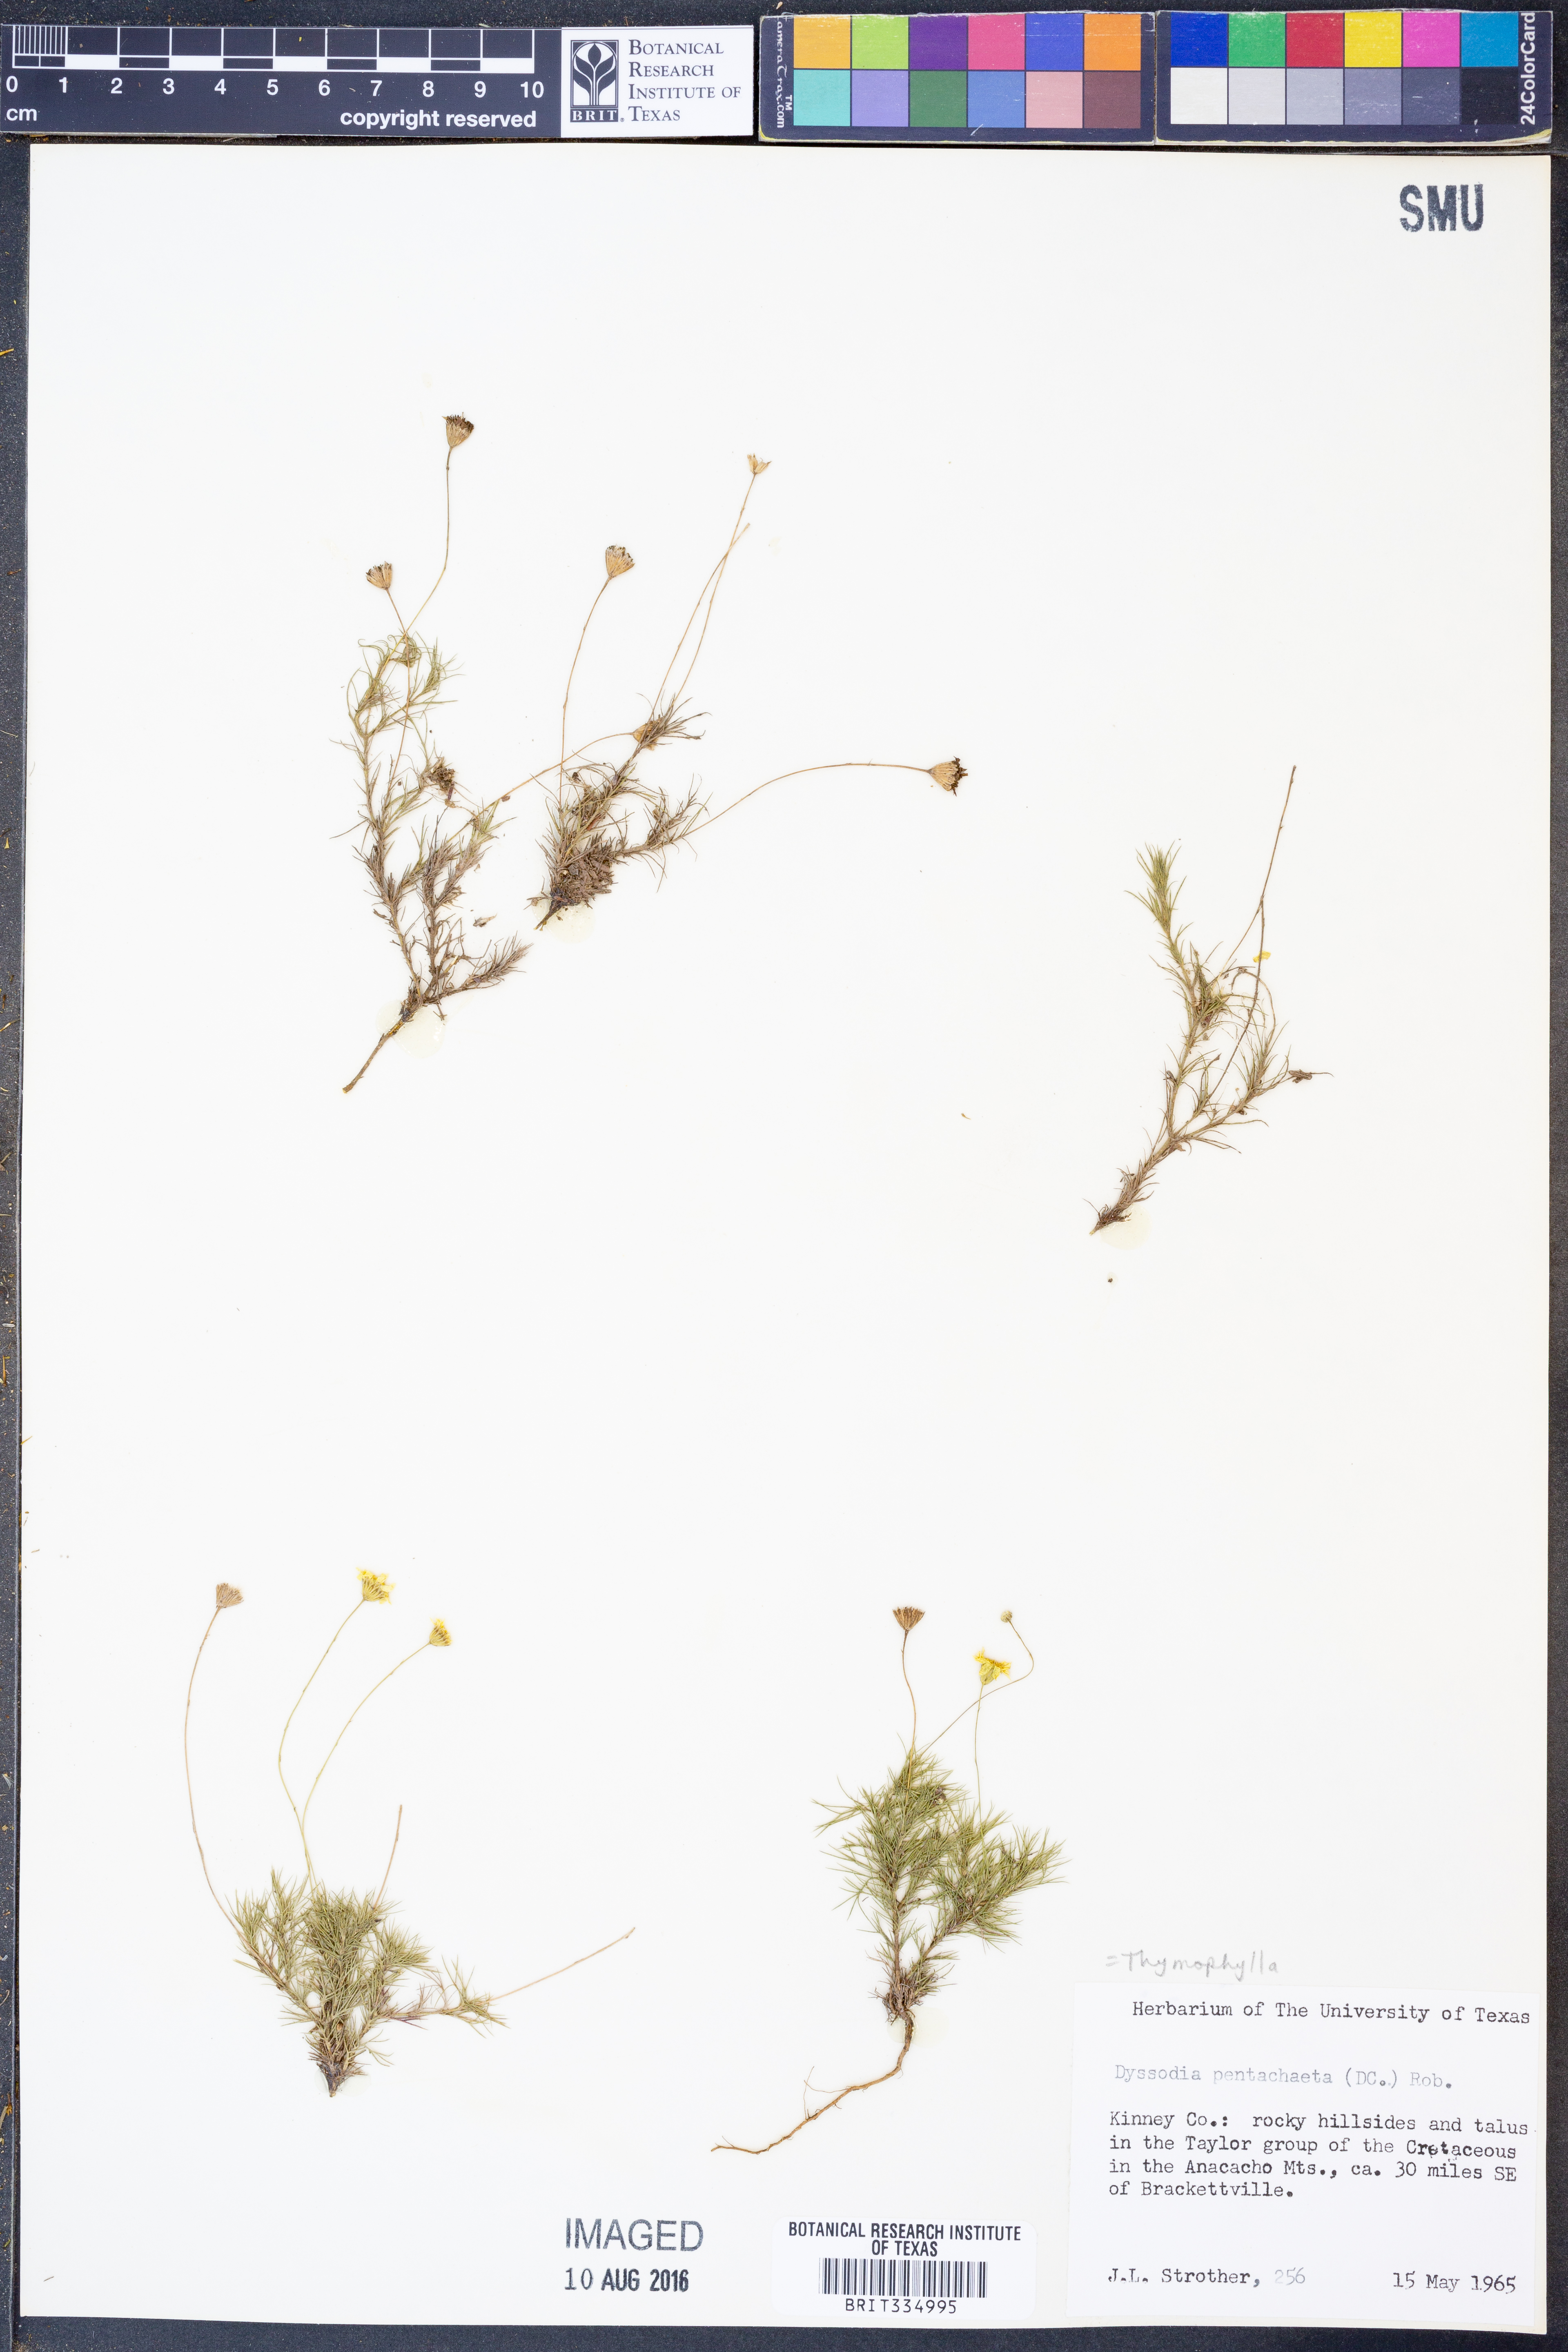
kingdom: Plantae
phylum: Tracheophyta
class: Magnoliopsida
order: Asterales
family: Asteraceae
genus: Thymophylla
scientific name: Thymophylla pentachaeta
